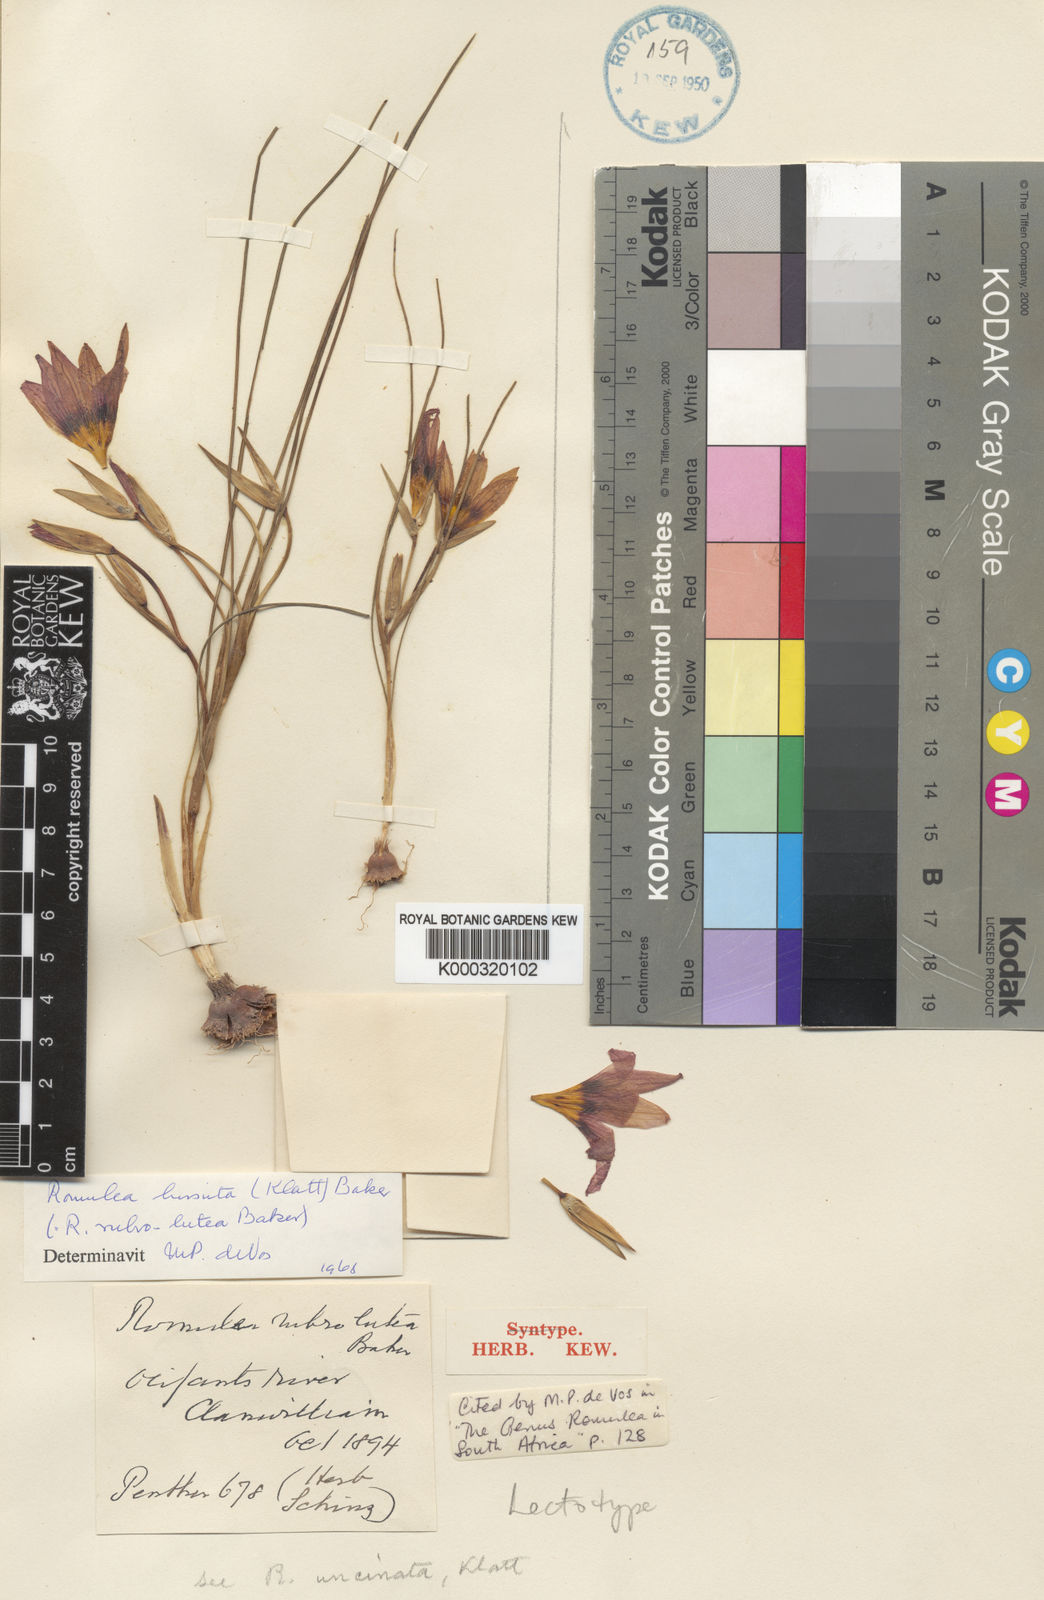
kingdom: Plantae
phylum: Tracheophyta
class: Liliopsida
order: Asparagales
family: Iridaceae
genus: Romulea
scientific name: Romulea hirsuta
